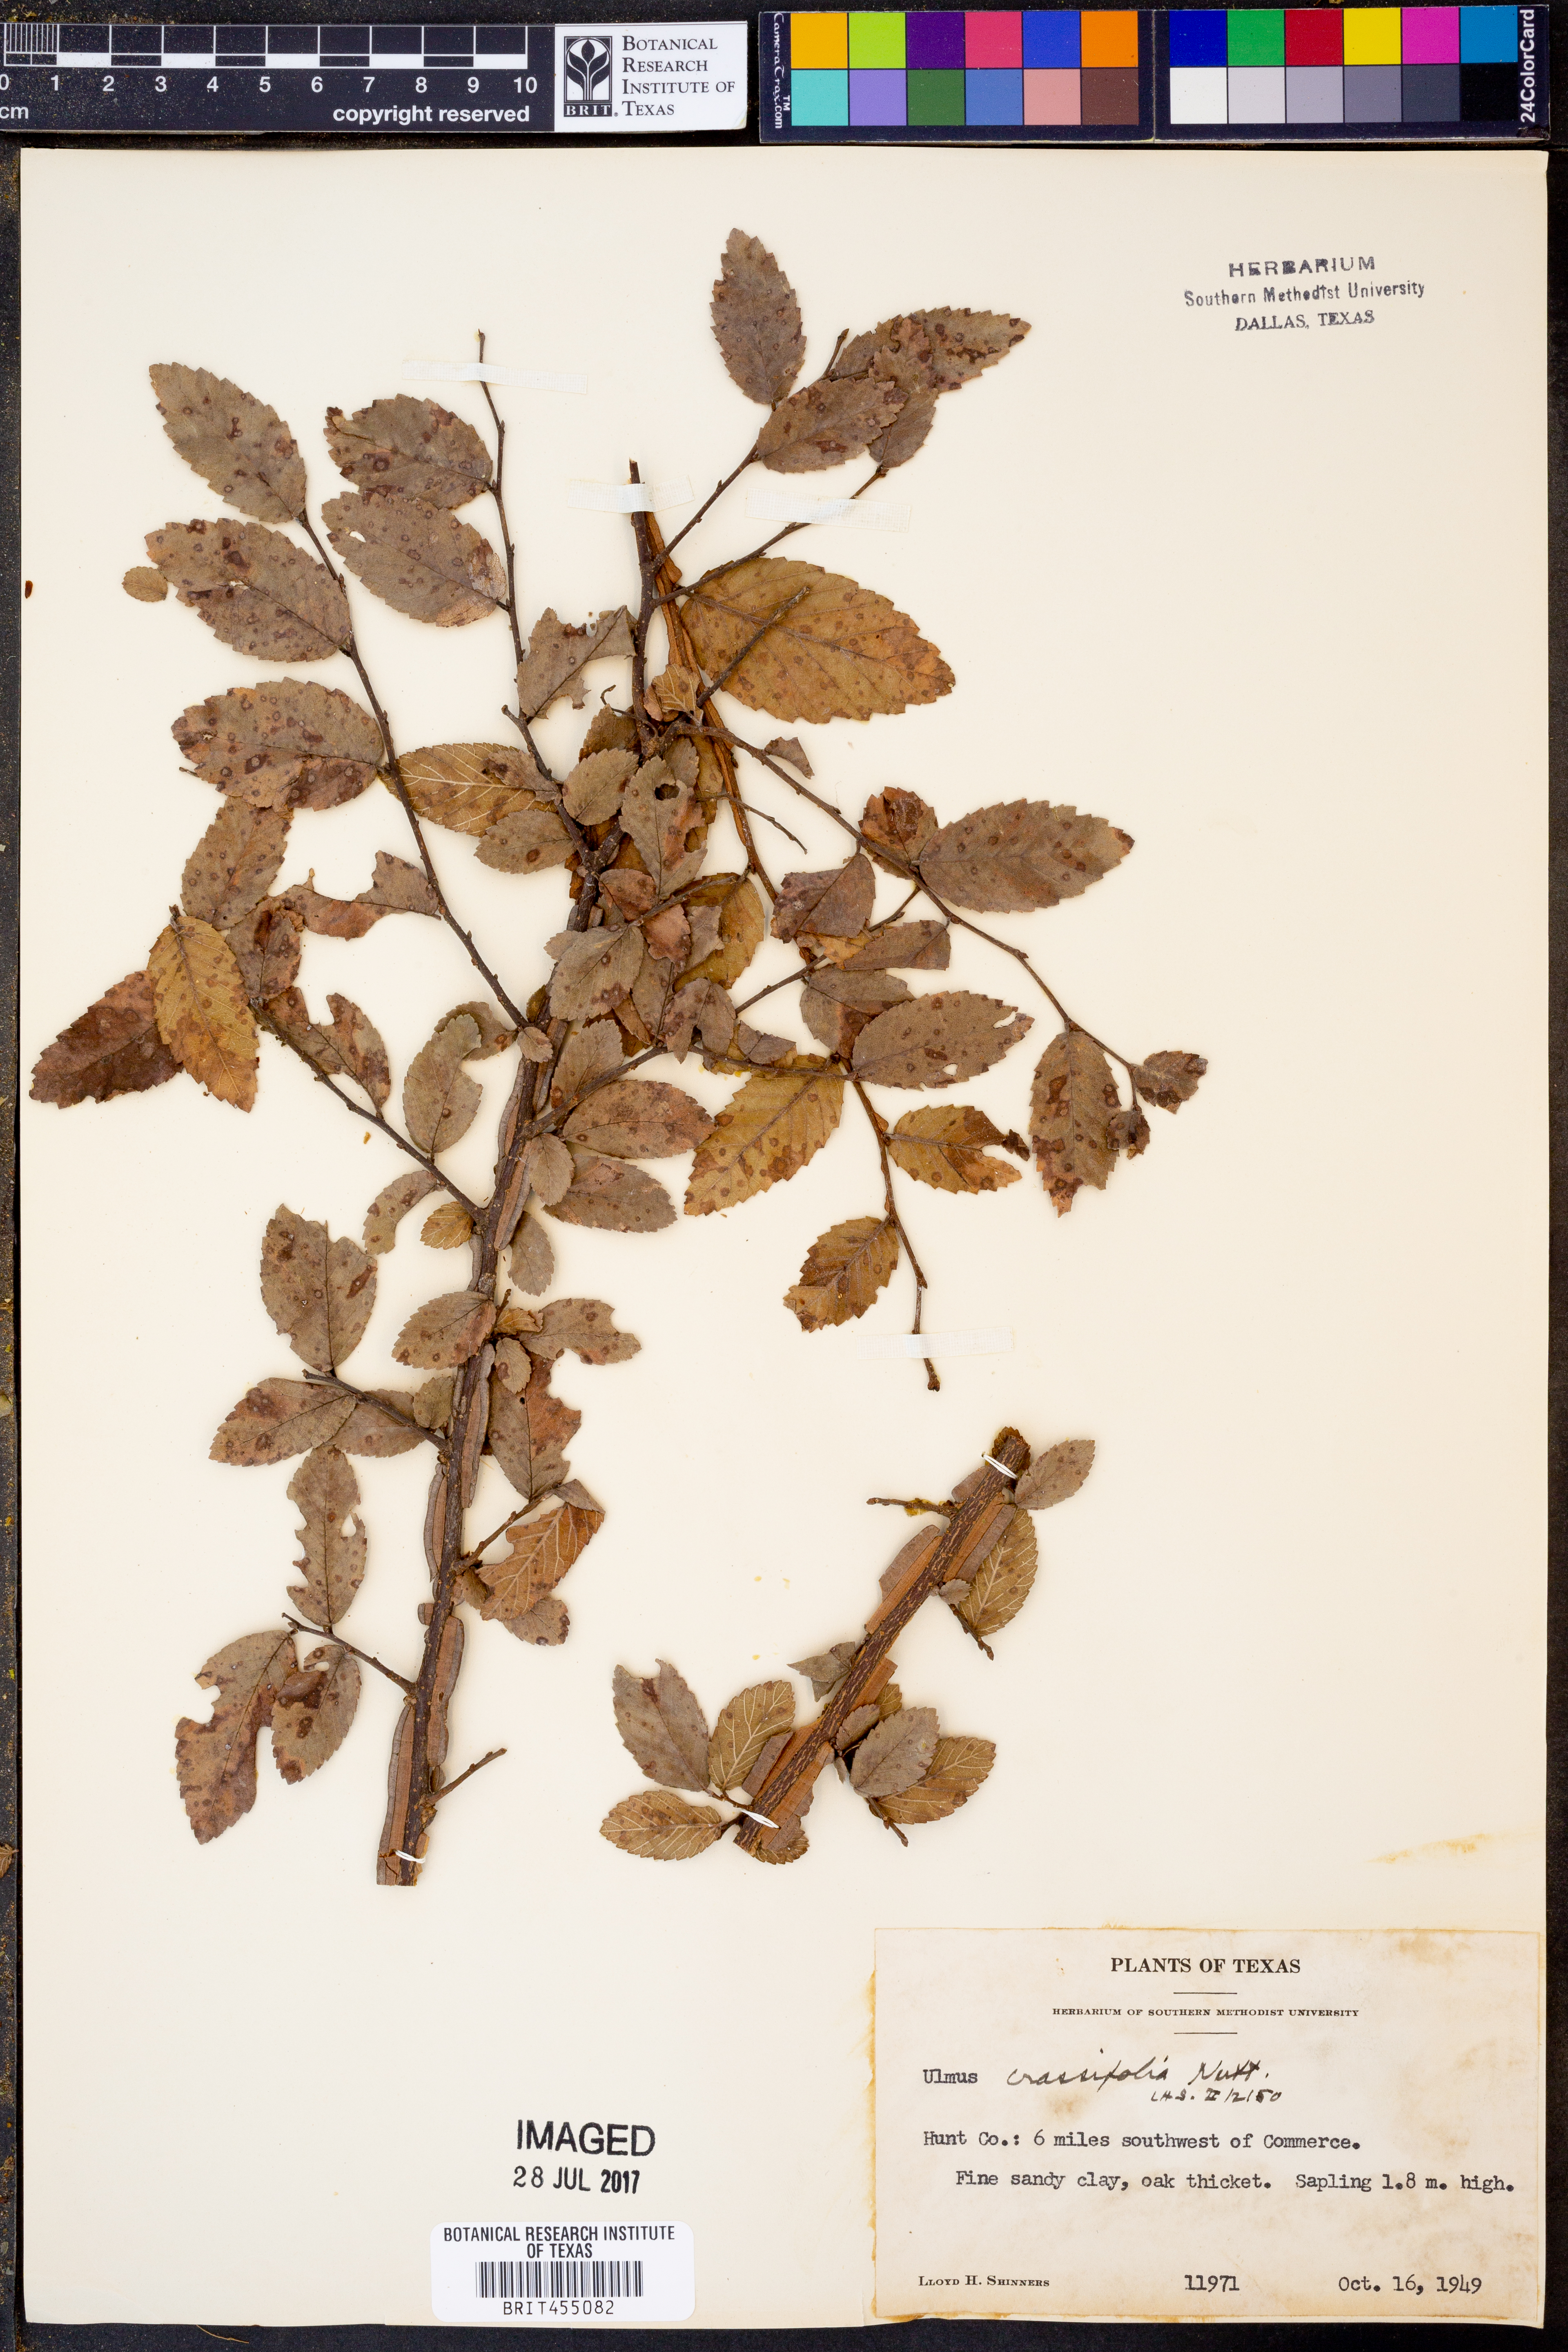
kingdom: Plantae
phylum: Tracheophyta
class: Magnoliopsida
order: Rosales
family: Ulmaceae
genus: Ulmus
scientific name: Ulmus crassifolia
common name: Basket elm
